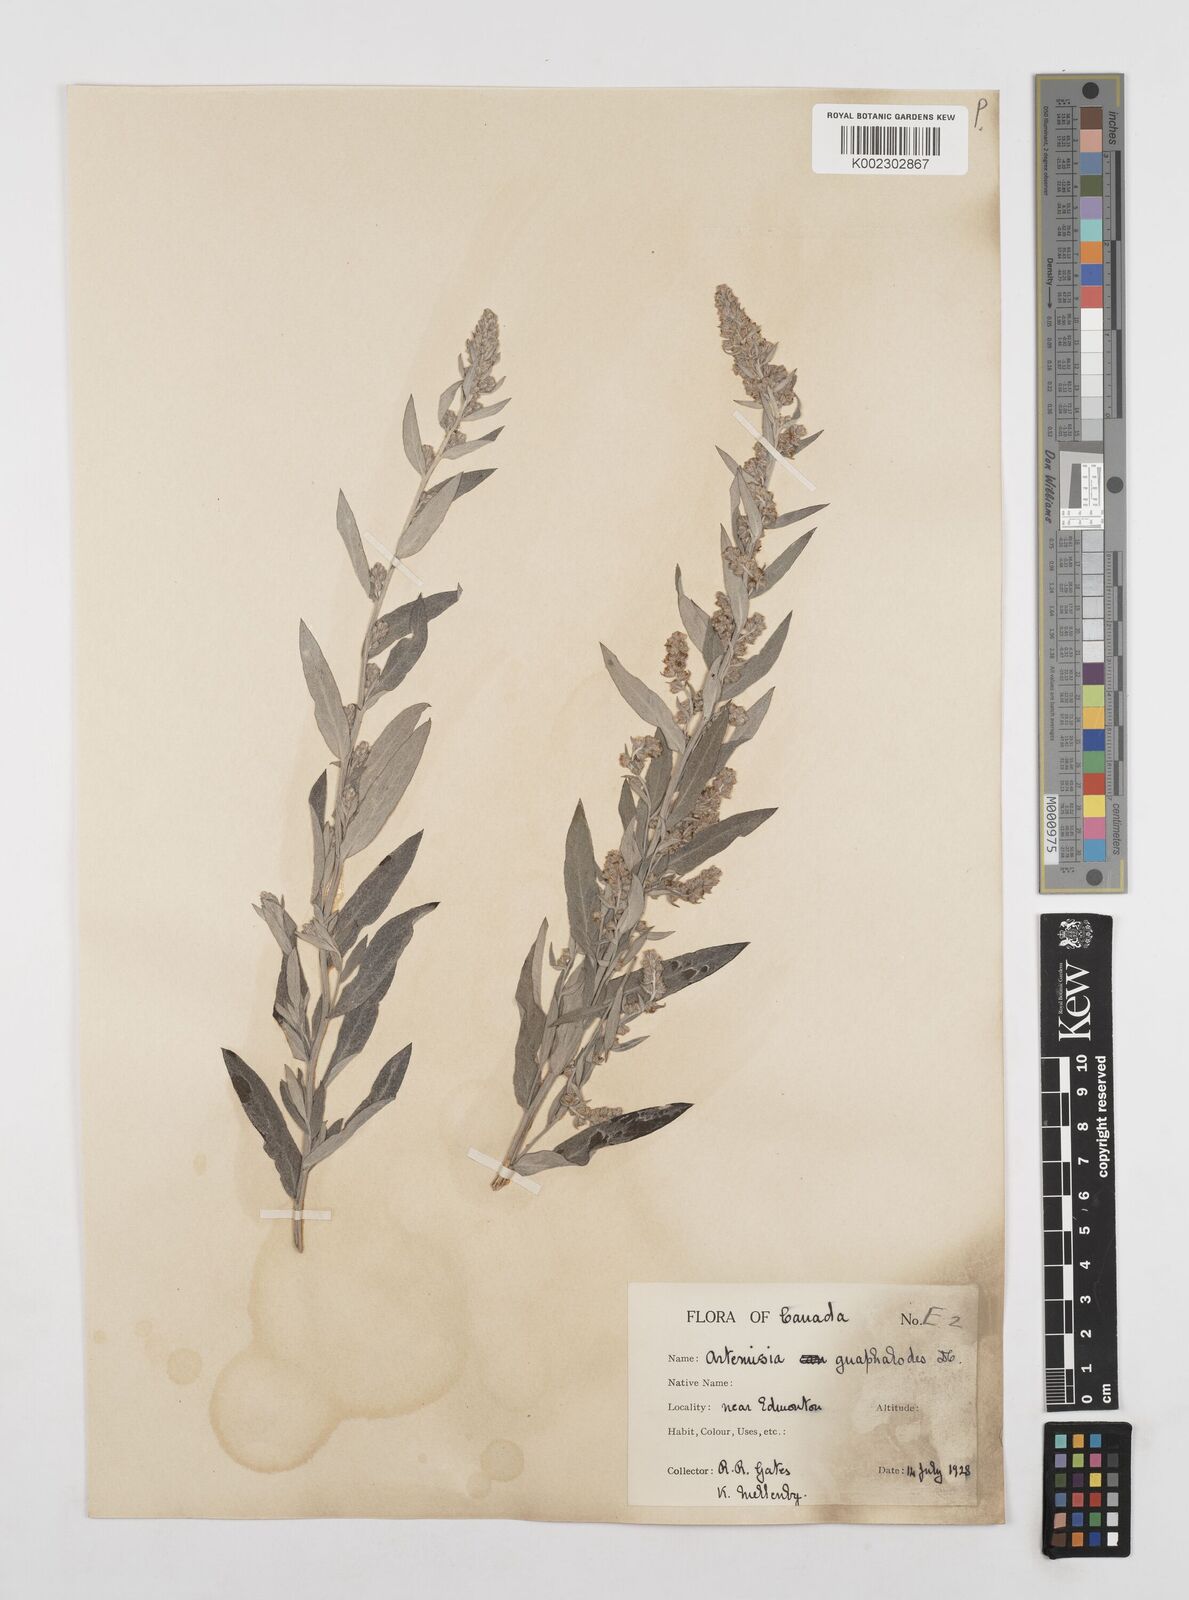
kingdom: Plantae
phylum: Tracheophyta
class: Magnoliopsida
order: Asterales
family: Asteraceae
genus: Artemisia
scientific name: Artemisia ludoviciana
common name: Western mugwort
